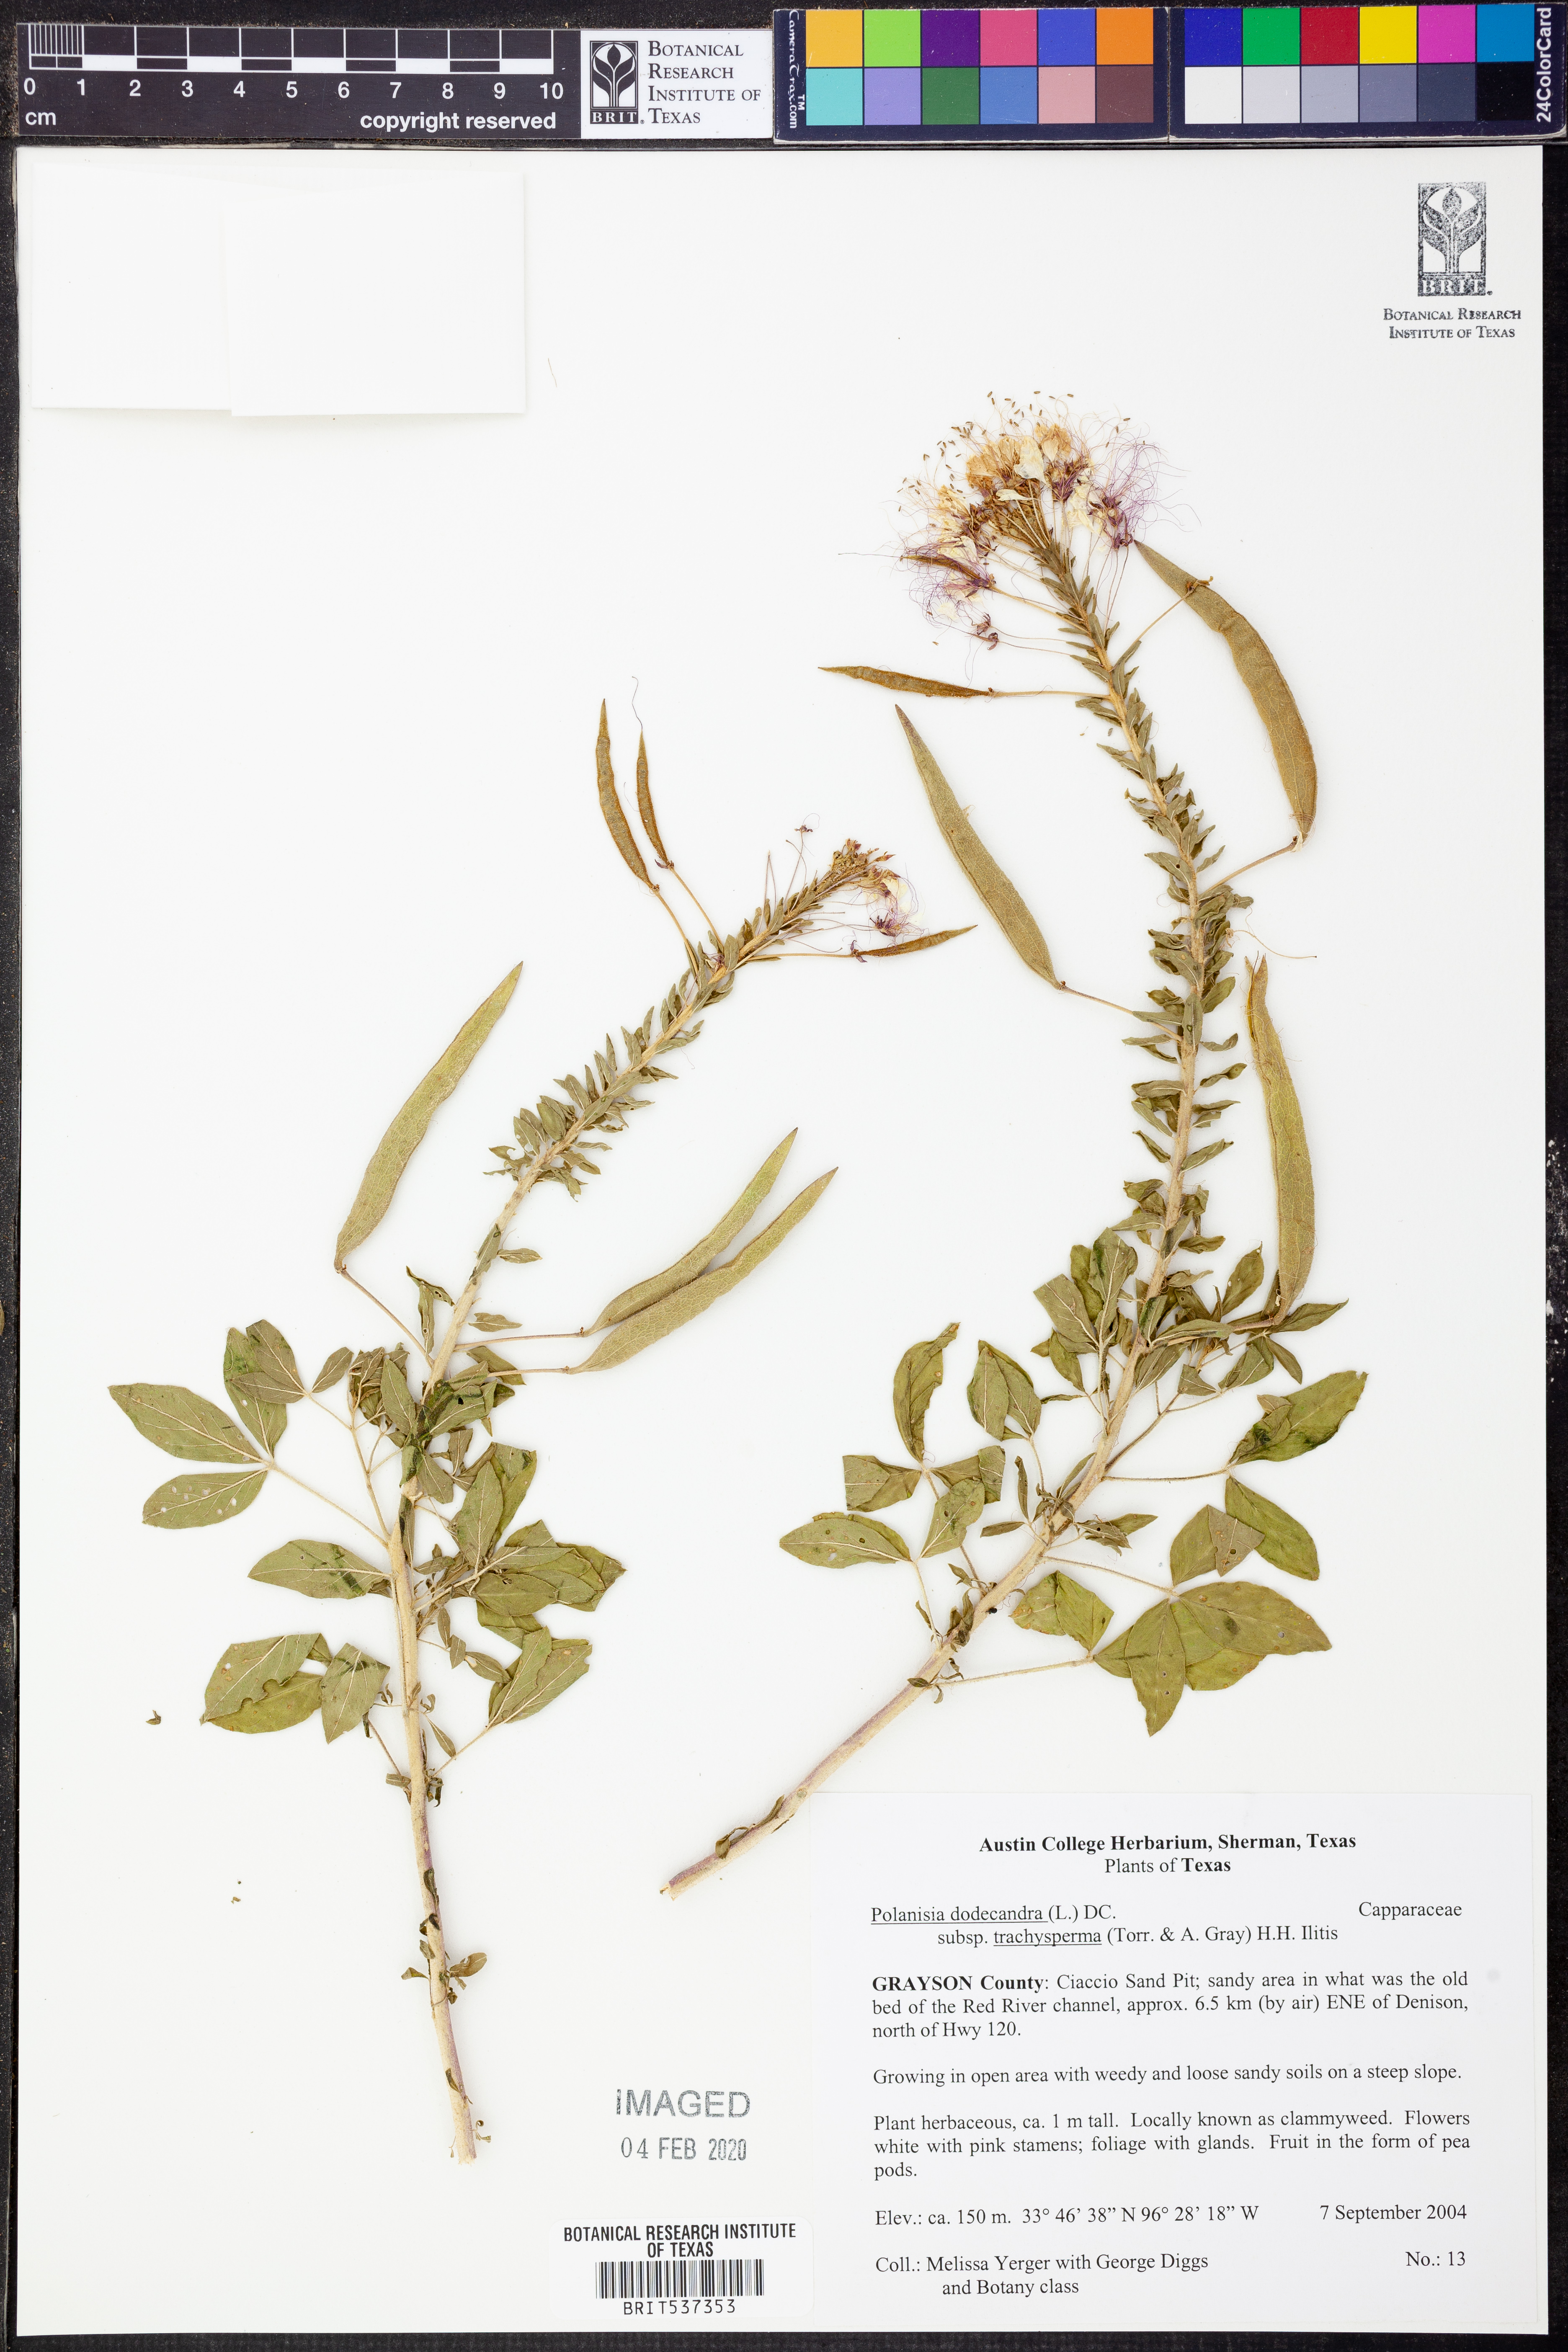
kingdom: Plantae
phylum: Tracheophyta
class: Magnoliopsida
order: Brassicales
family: Cleomaceae
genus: Polanisia
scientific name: Polanisia trachysperma
